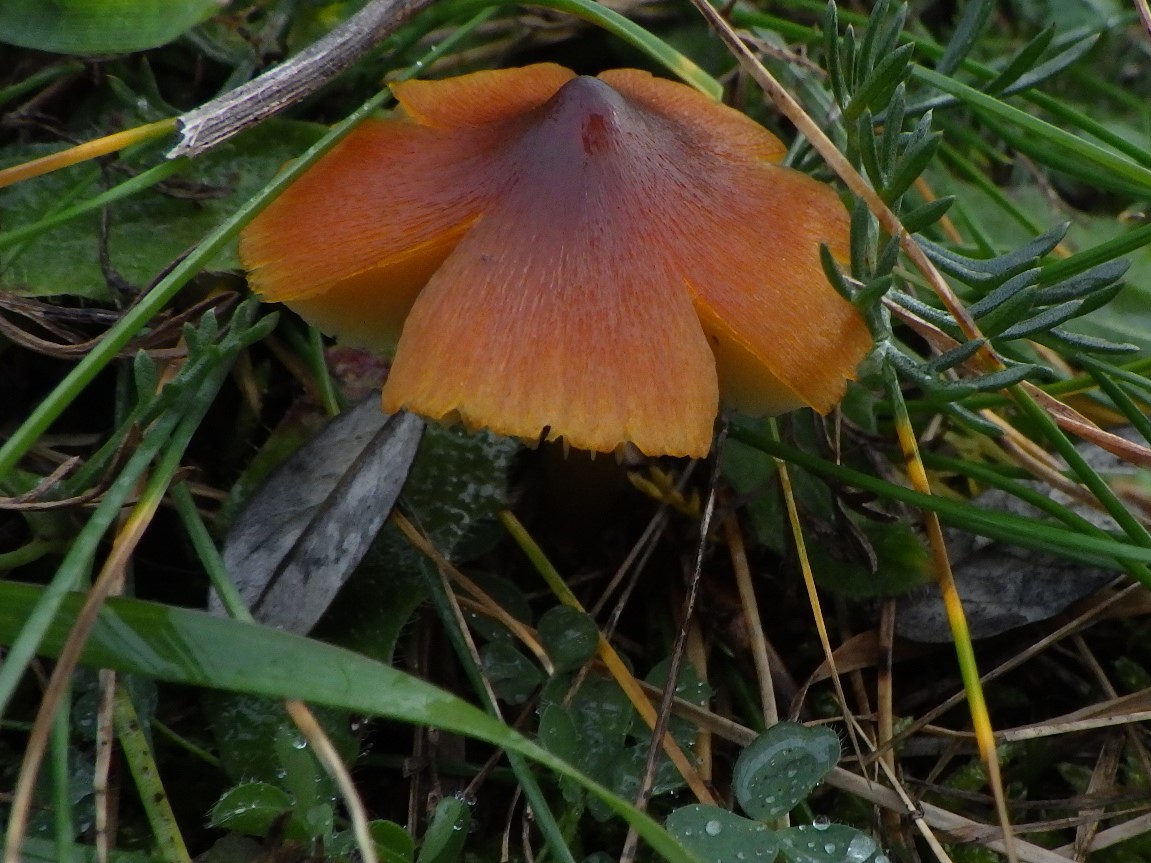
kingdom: Fungi
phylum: Basidiomycota
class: Agaricomycetes
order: Agaricales
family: Hygrophoraceae
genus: Hygrocybe
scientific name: Hygrocybe conica
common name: kegle-vokshat
